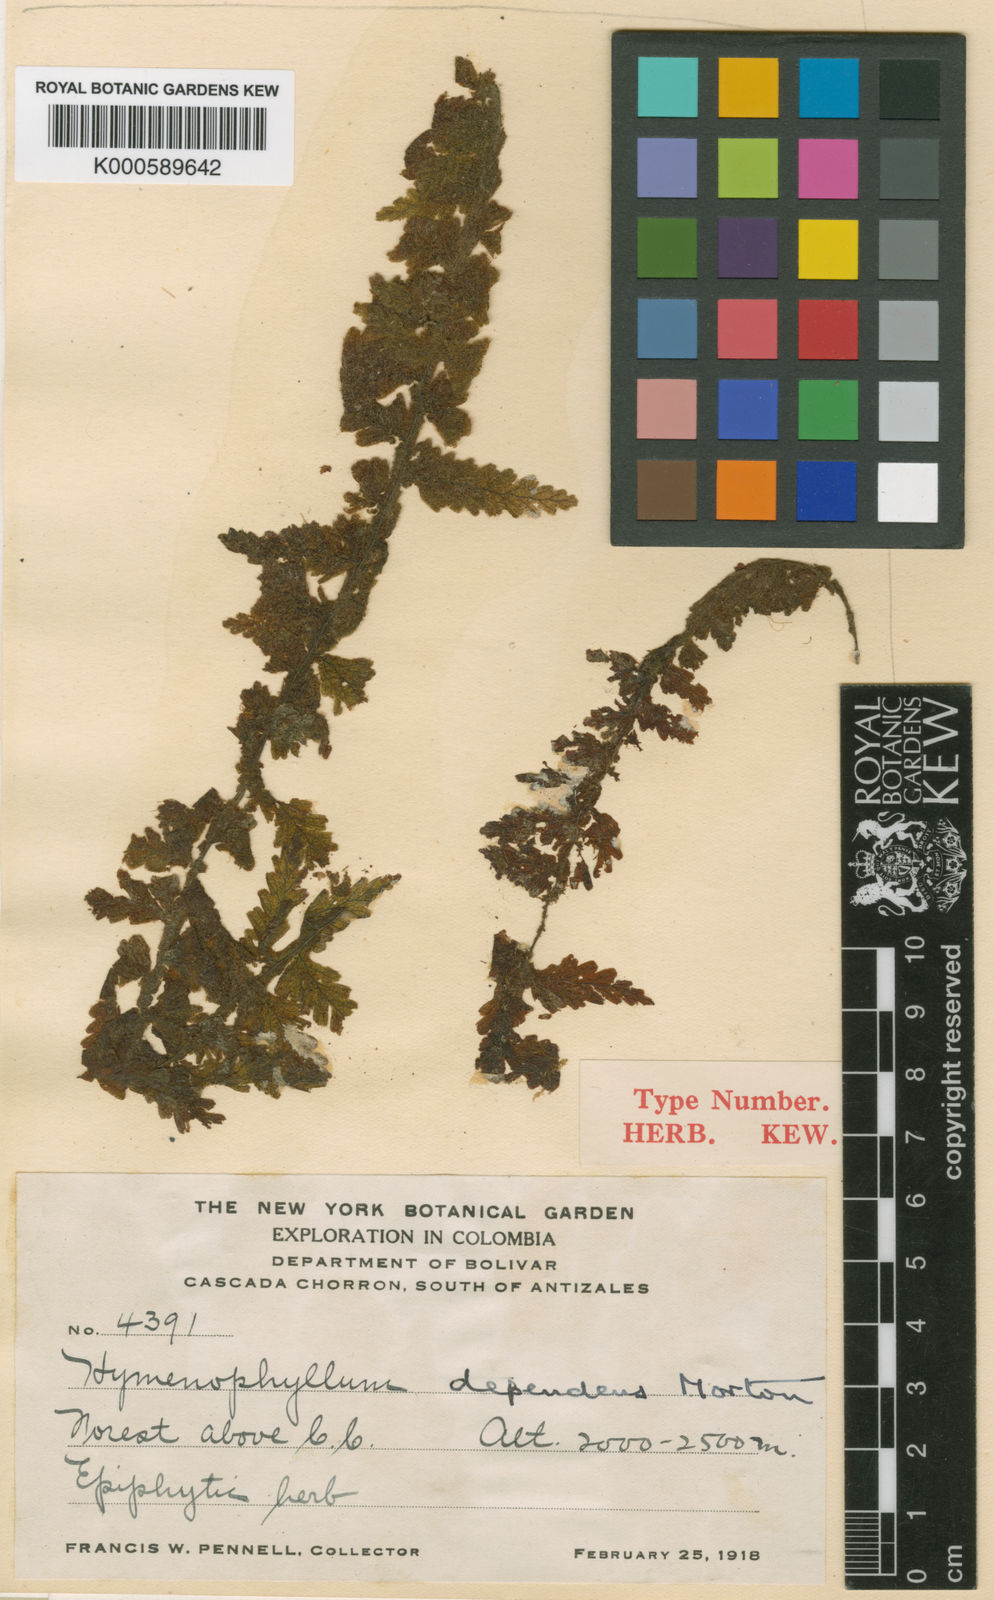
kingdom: Plantae
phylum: Tracheophyta
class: Polypodiopsida
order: Hymenophyllales
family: Hymenophyllaceae
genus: Hymenophyllum
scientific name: Hymenophyllum dependens
